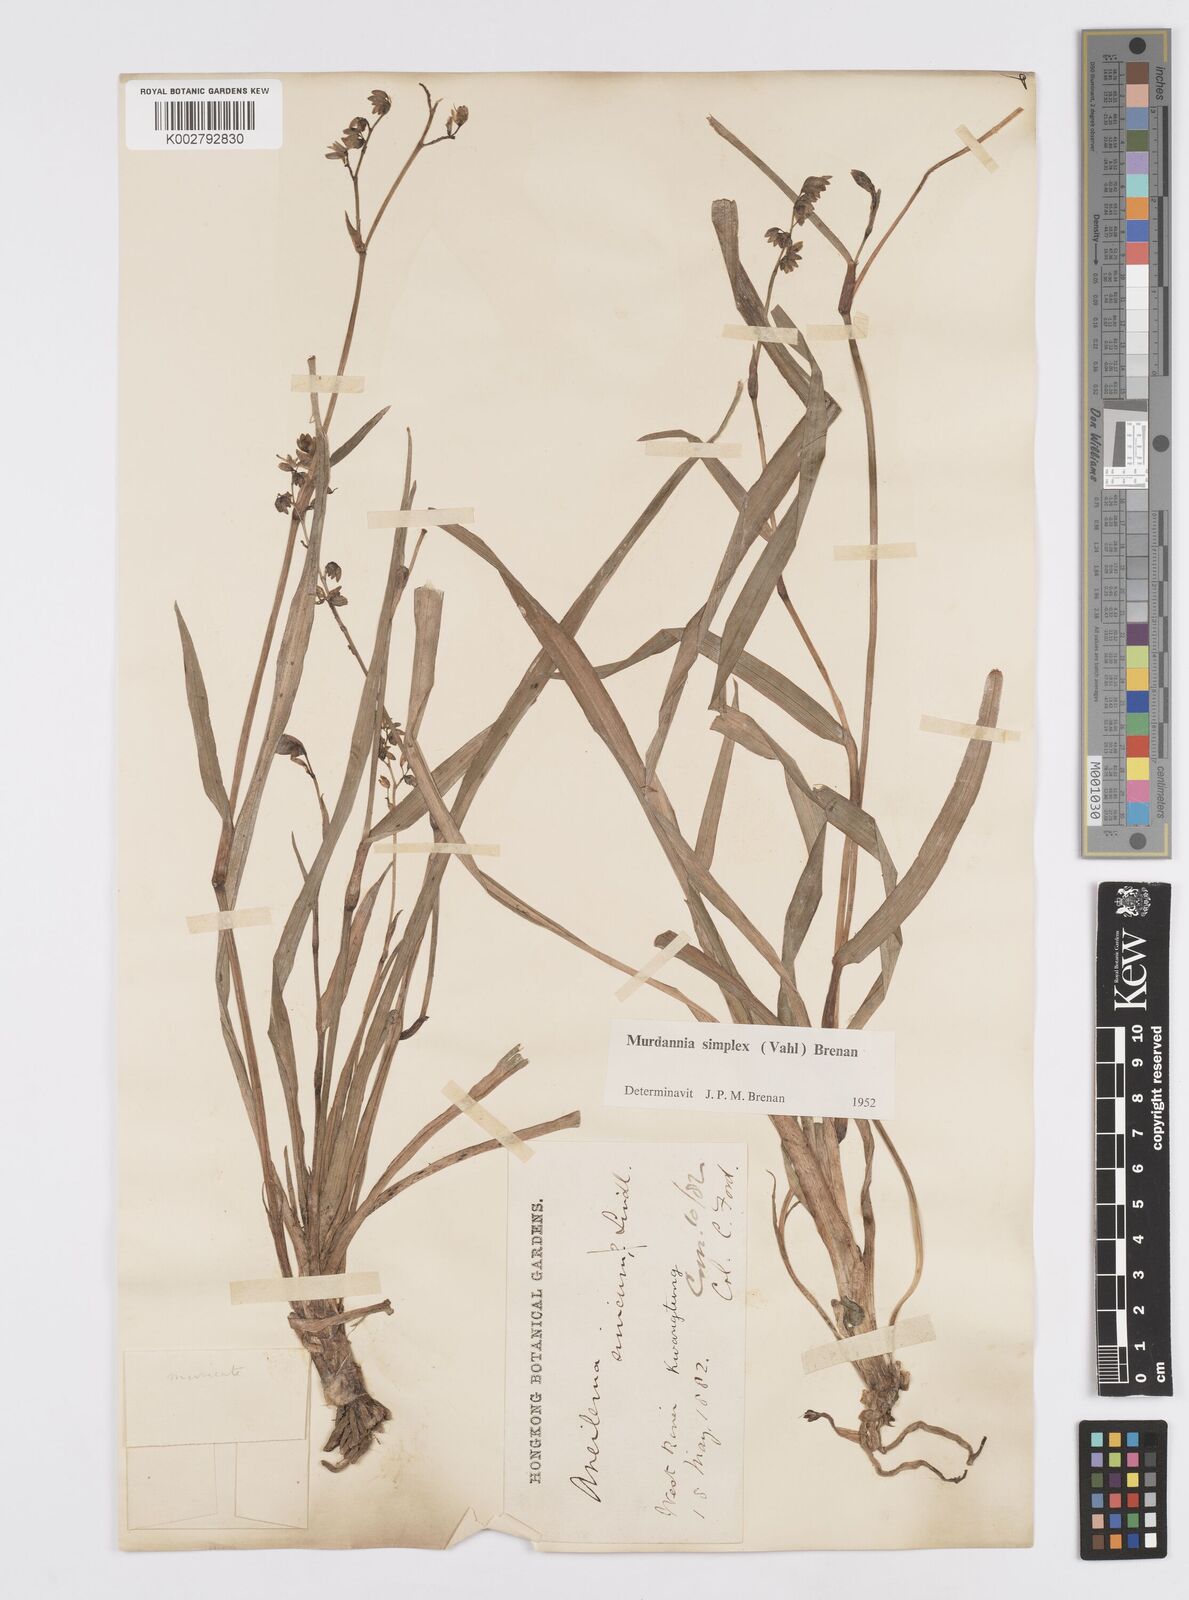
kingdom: Plantae
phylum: Tracheophyta
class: Liliopsida
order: Commelinales
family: Commelinaceae
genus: Murdannia
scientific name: Murdannia
